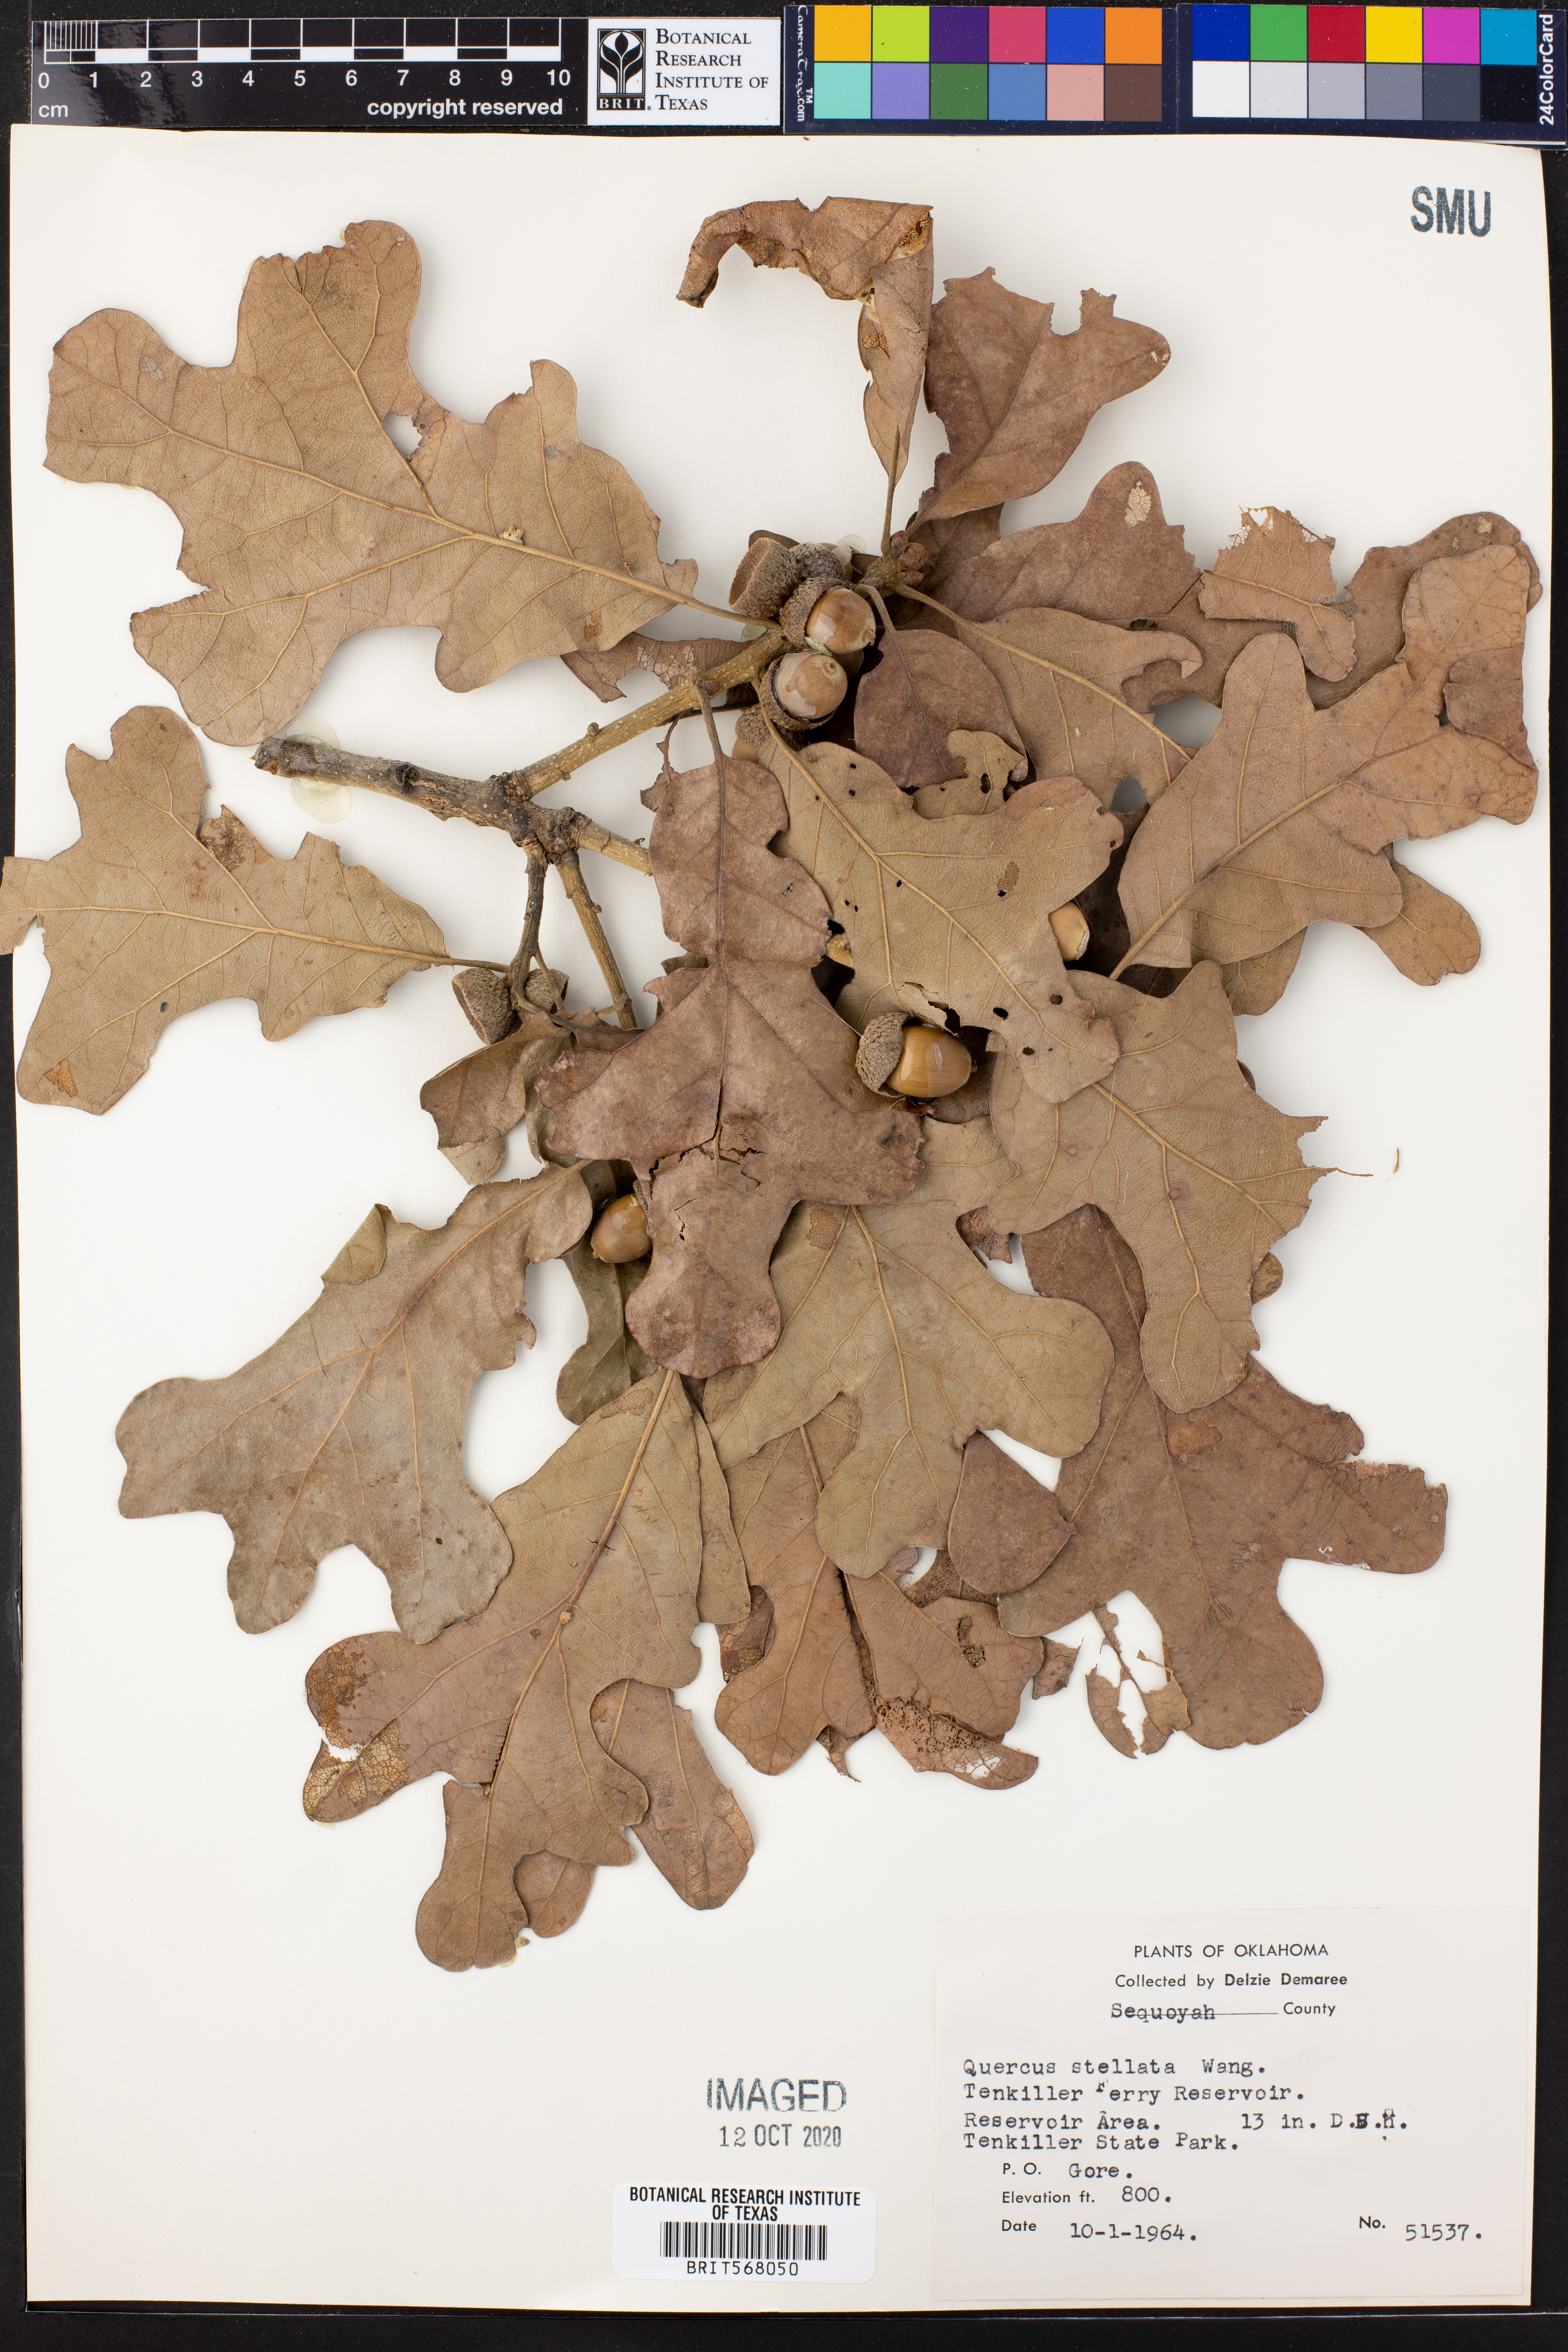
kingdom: Plantae
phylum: Tracheophyta
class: Magnoliopsida
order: Fagales
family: Fagaceae
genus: Quercus
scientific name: Quercus stellata
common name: Post oak
